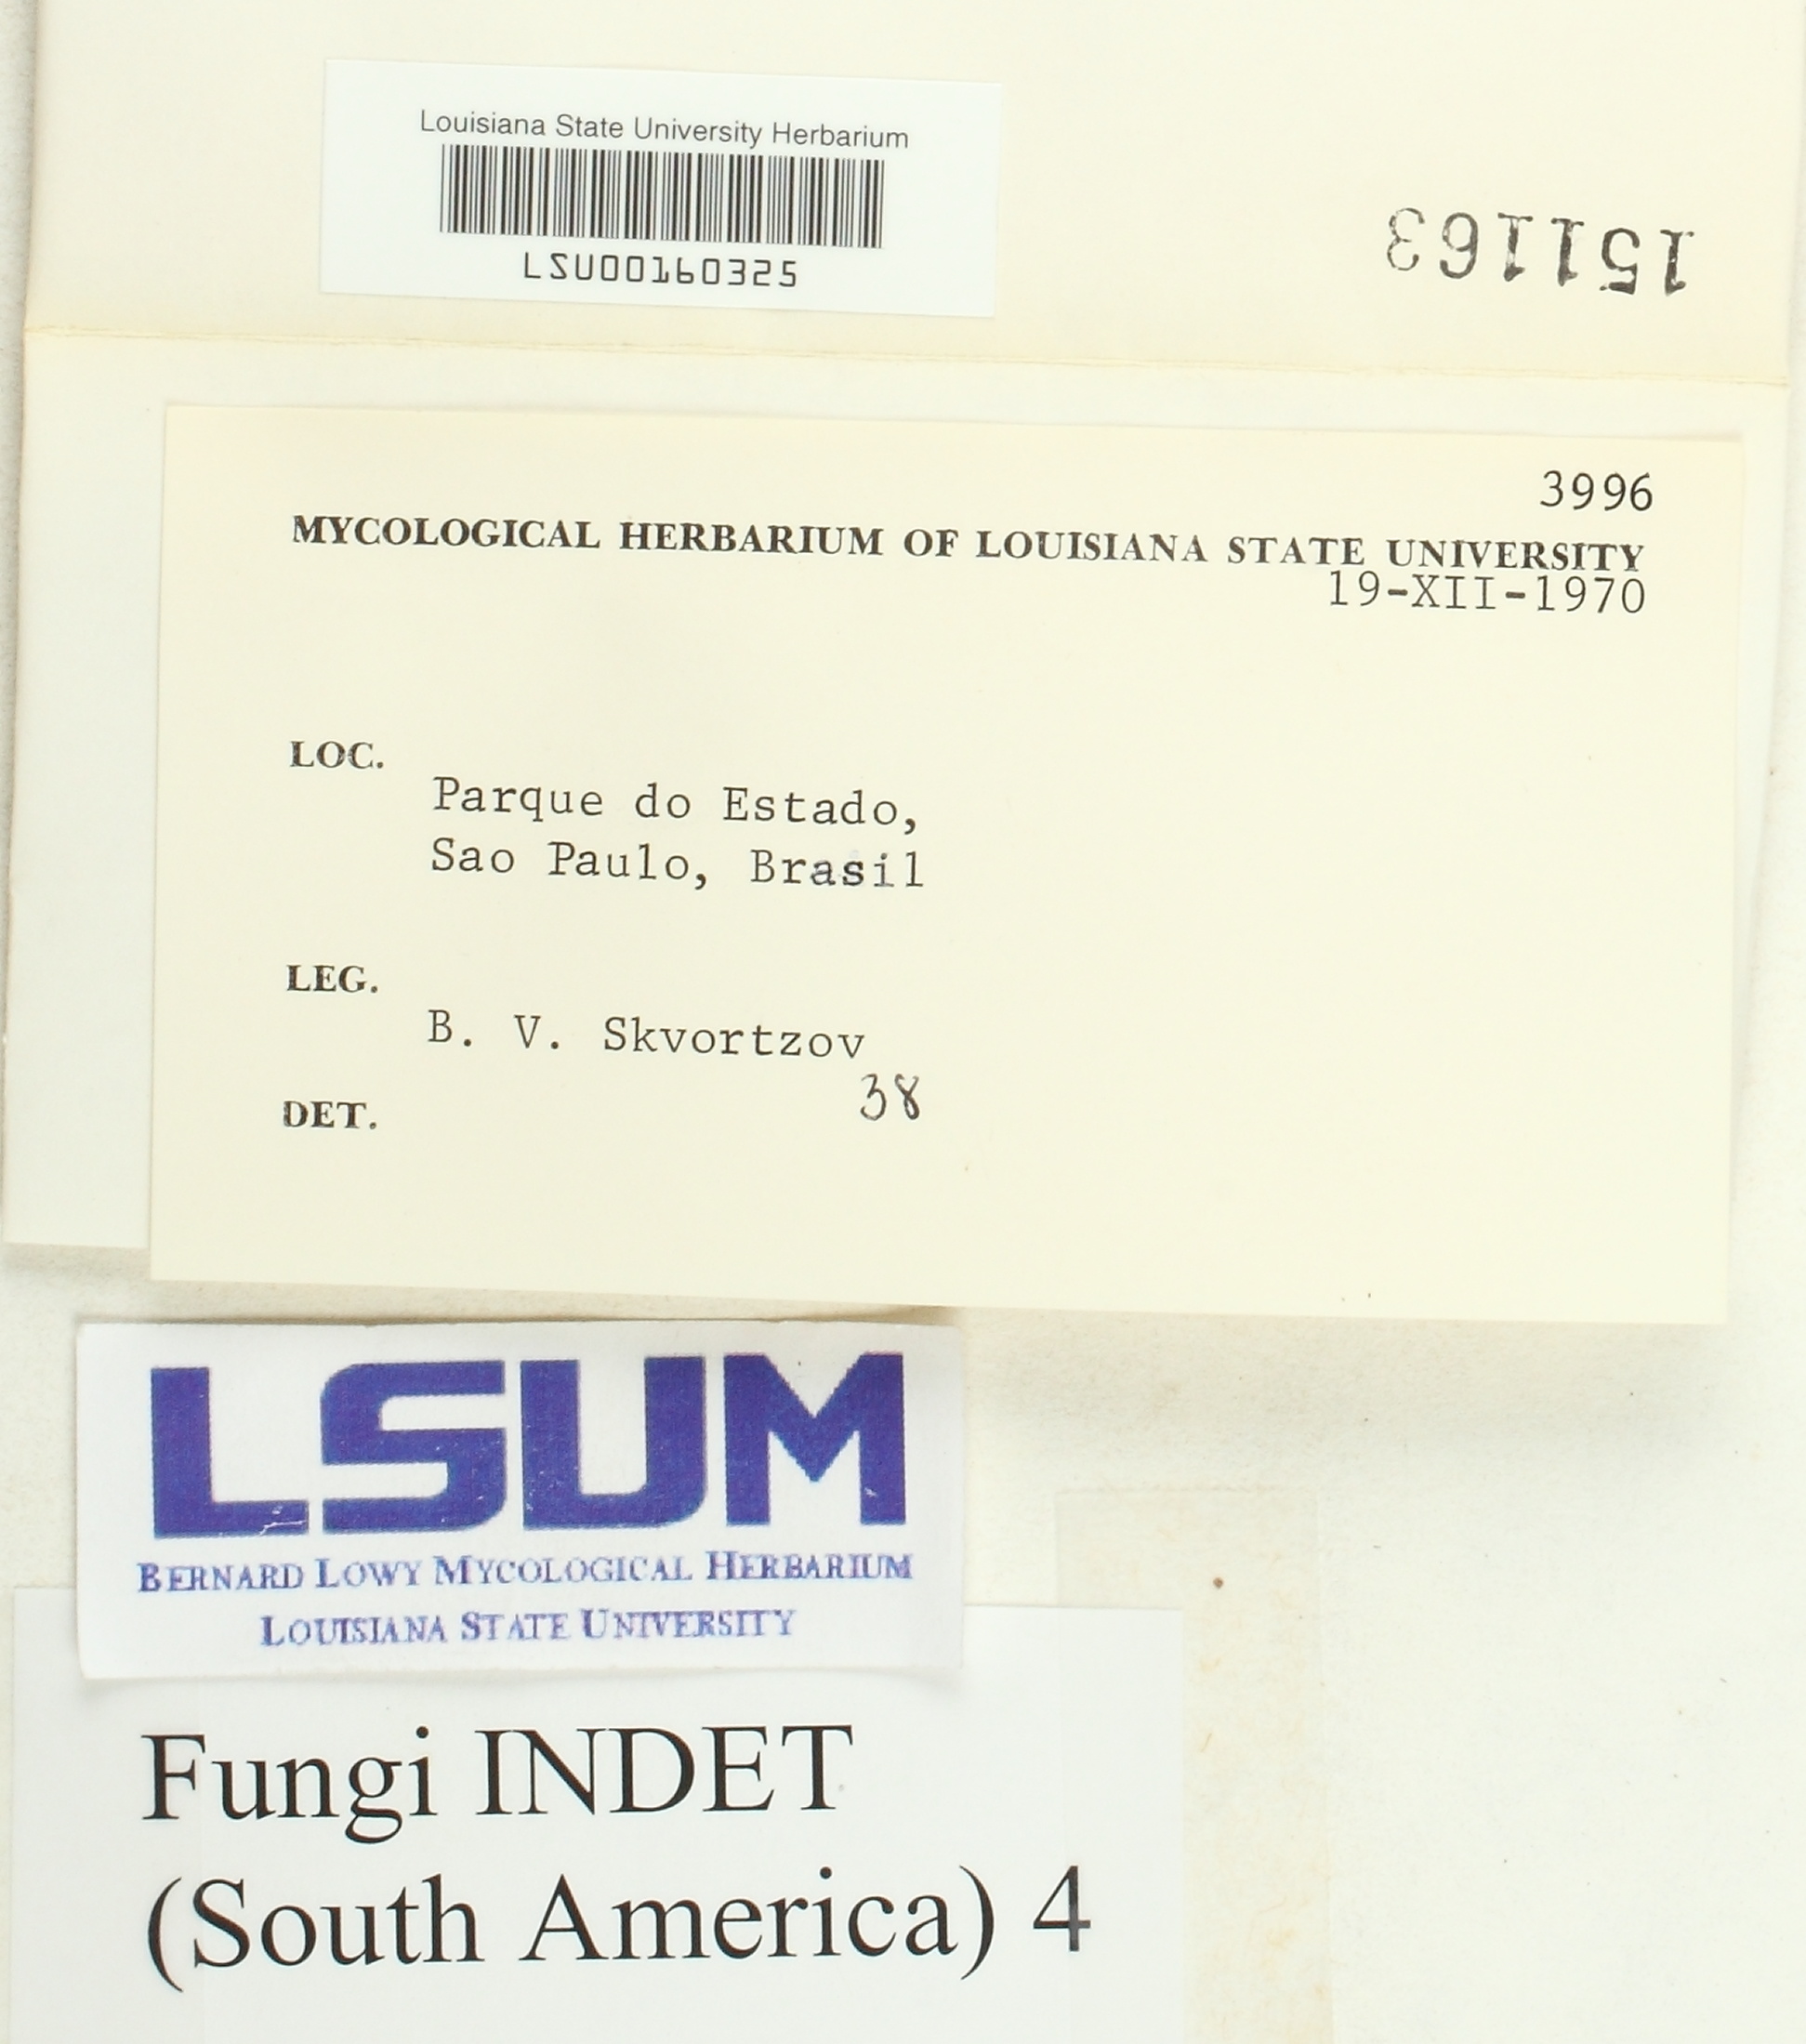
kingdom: Fungi
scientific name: Fungi
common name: Fungi
